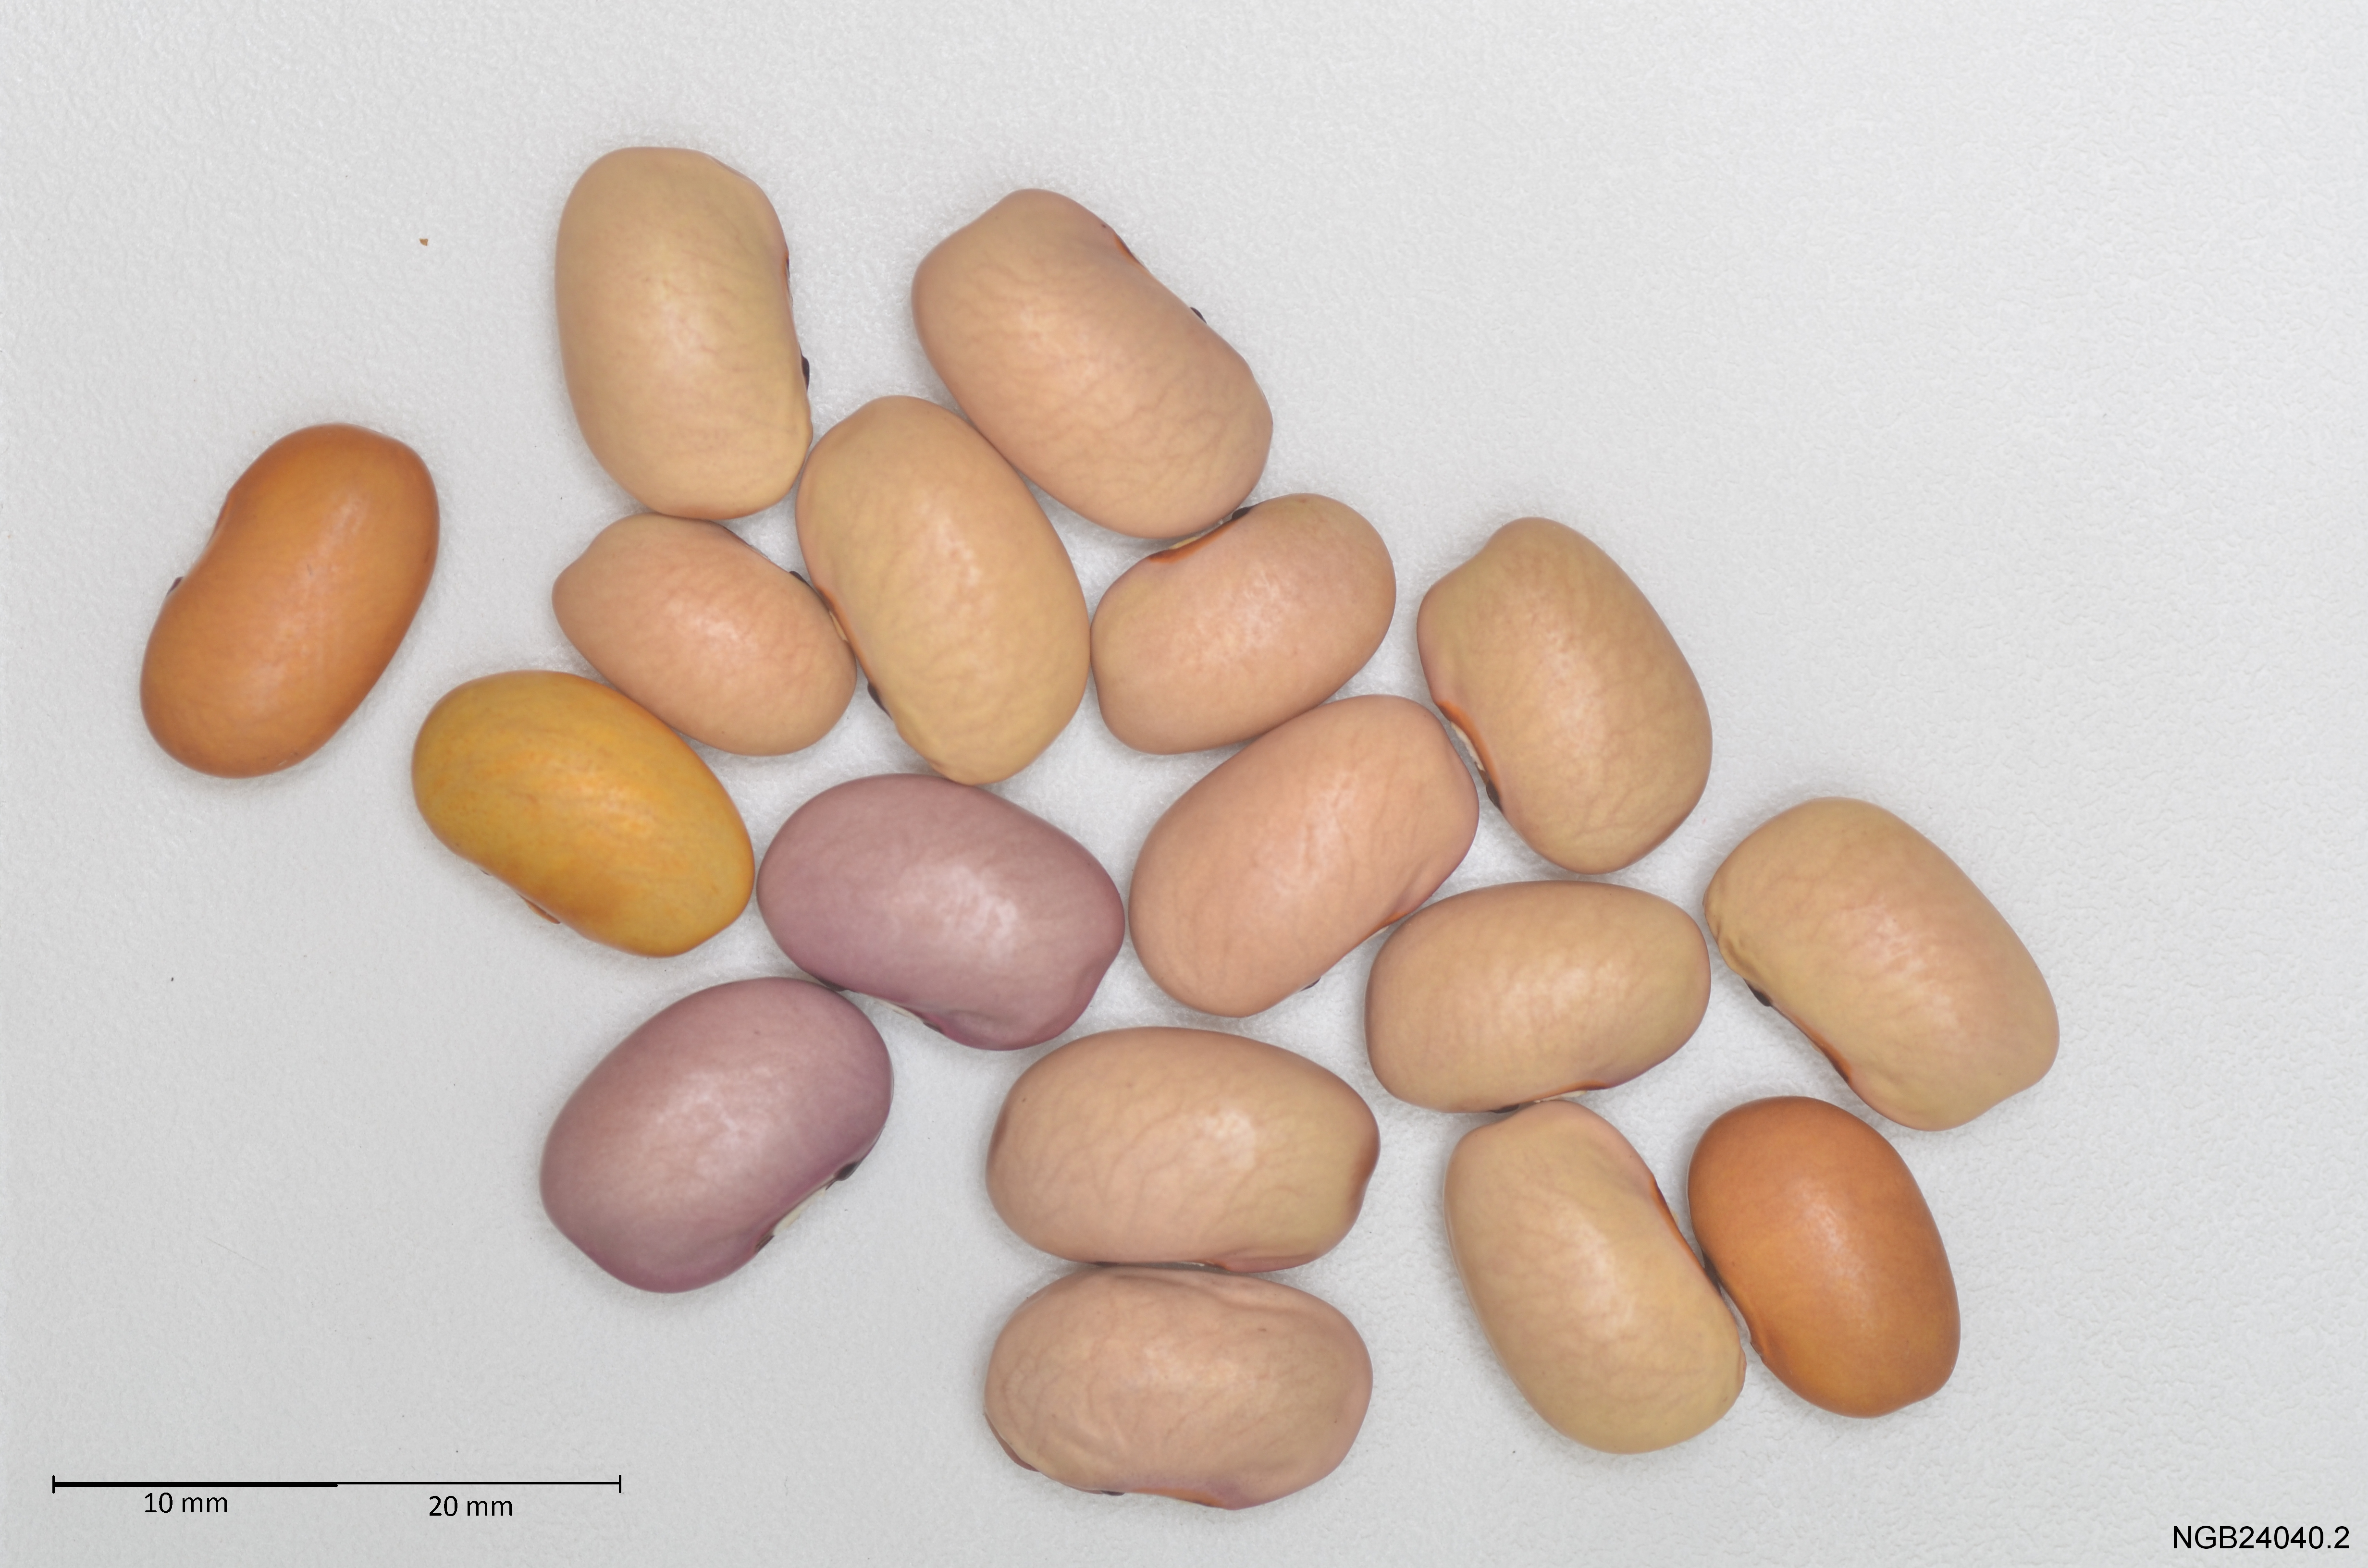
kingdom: Plantae
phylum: Tracheophyta
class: Magnoliopsida
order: Fabales
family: Fabaceae
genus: Phaseolus
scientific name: Phaseolus vulgaris
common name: Bean
